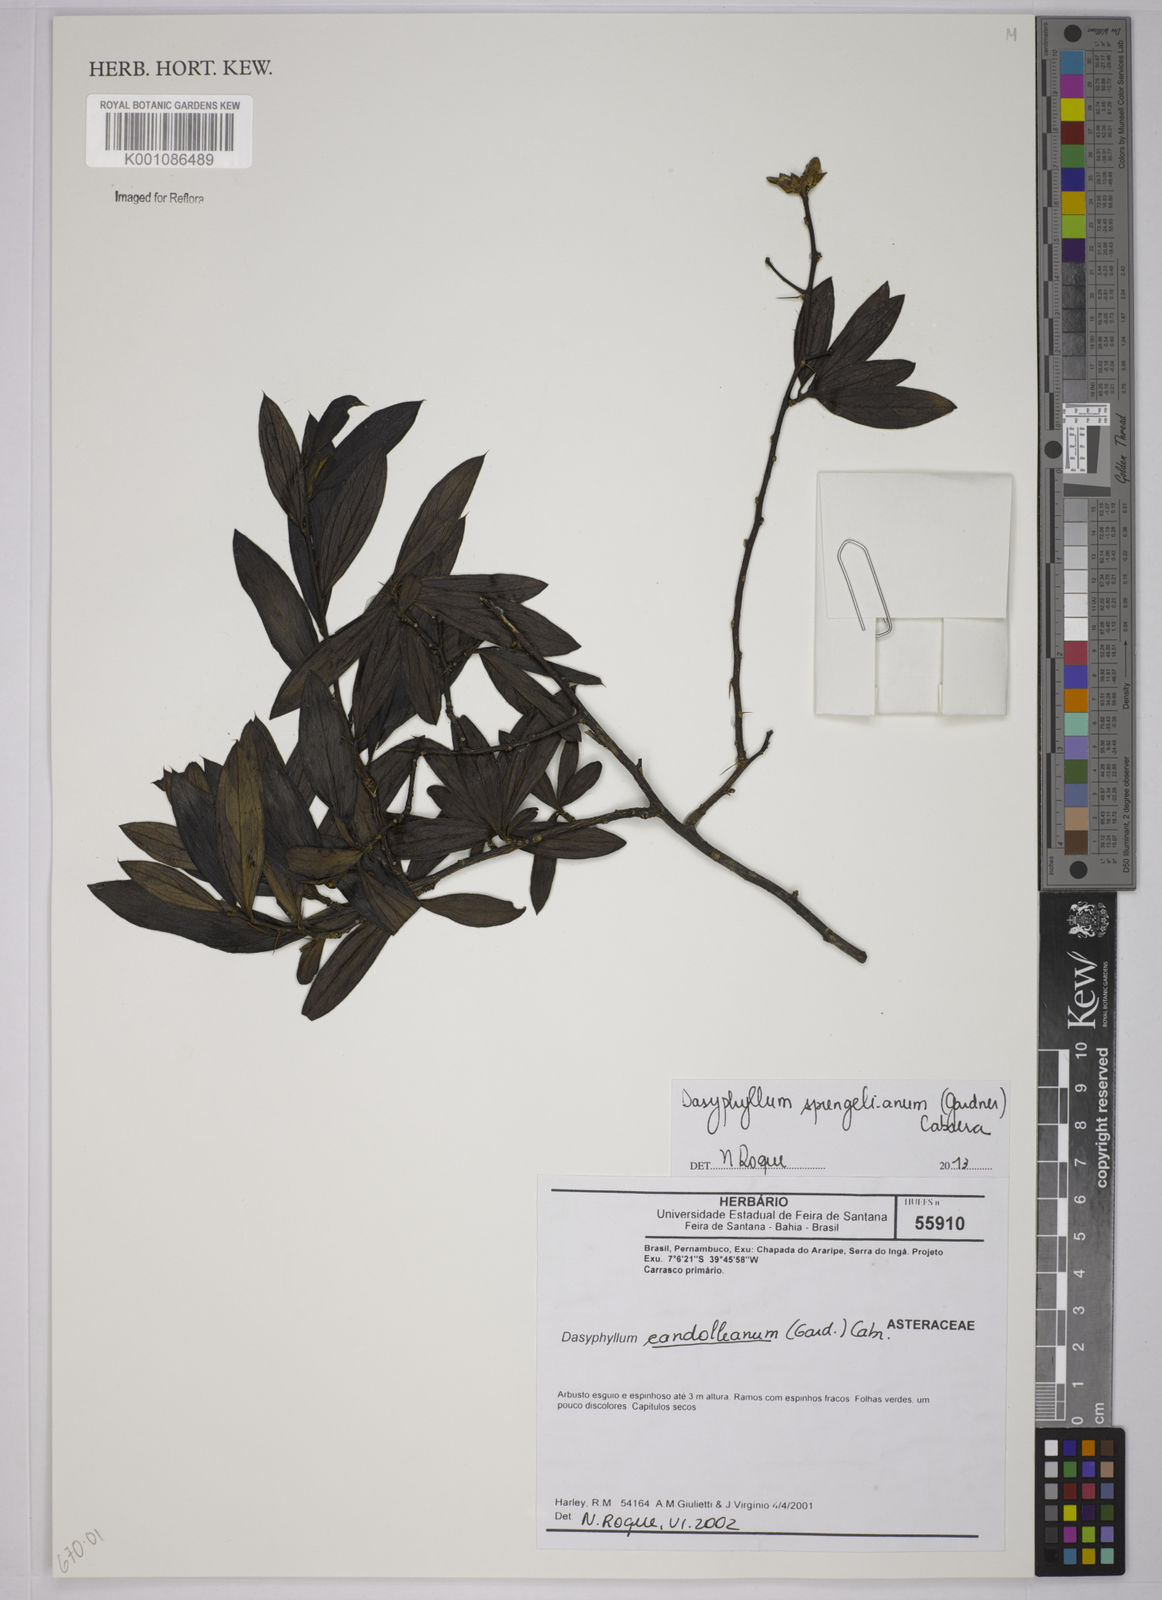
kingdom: Plantae
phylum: Tracheophyta
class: Magnoliopsida
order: Asterales
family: Asteraceae
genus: Dasyphyllum
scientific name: Dasyphyllum sprengelianum
